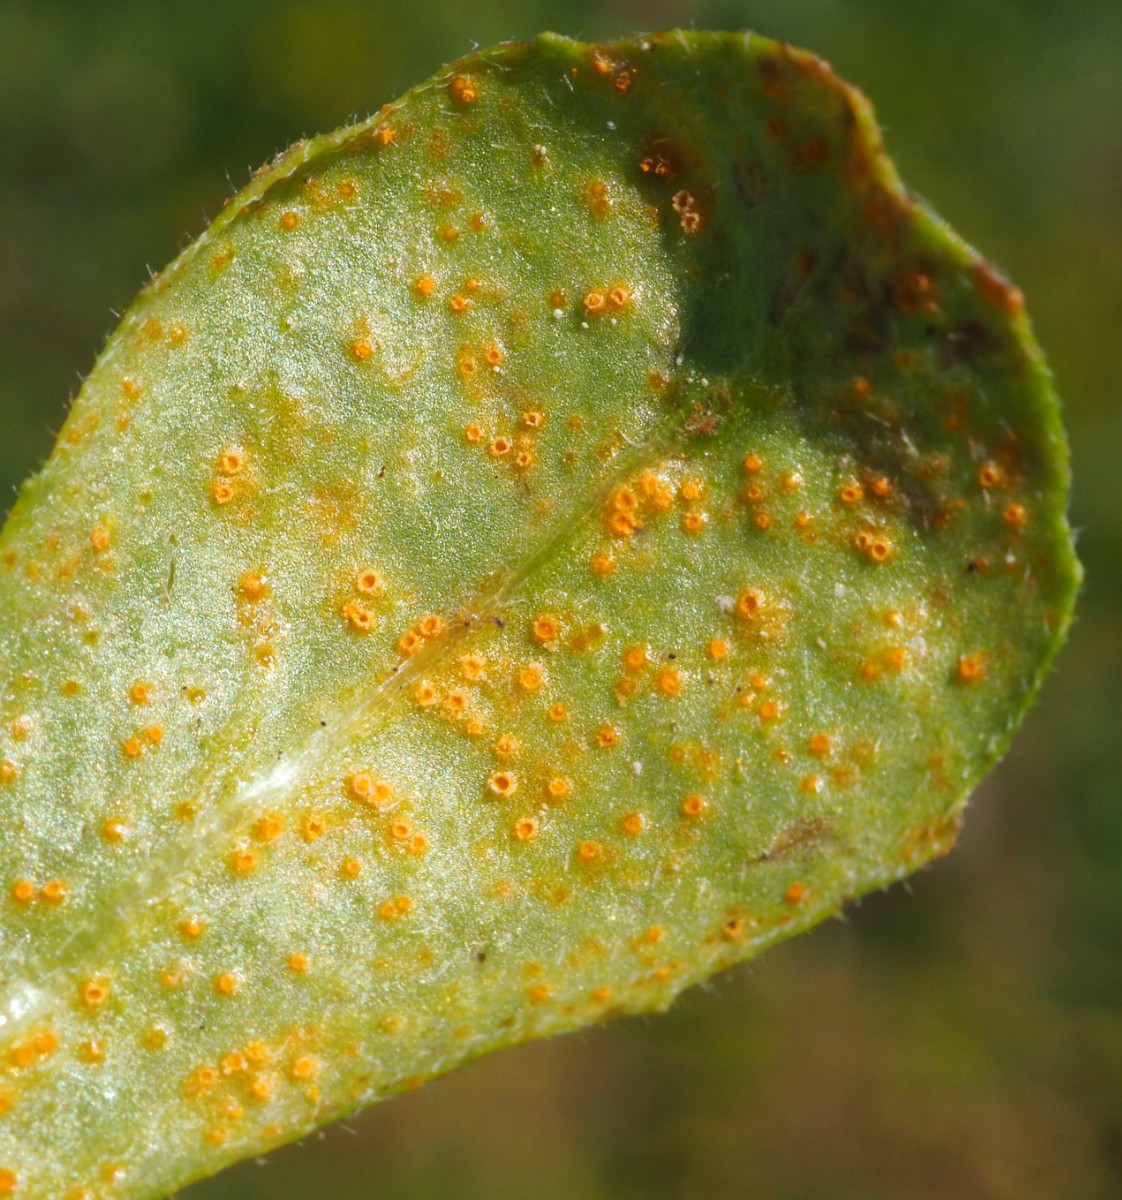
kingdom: Fungi
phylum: Basidiomycota
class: Pucciniomycetes
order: Pucciniales
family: Pucciniaceae
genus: Puccinia
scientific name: Puccinia distincta
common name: Daisy rust
